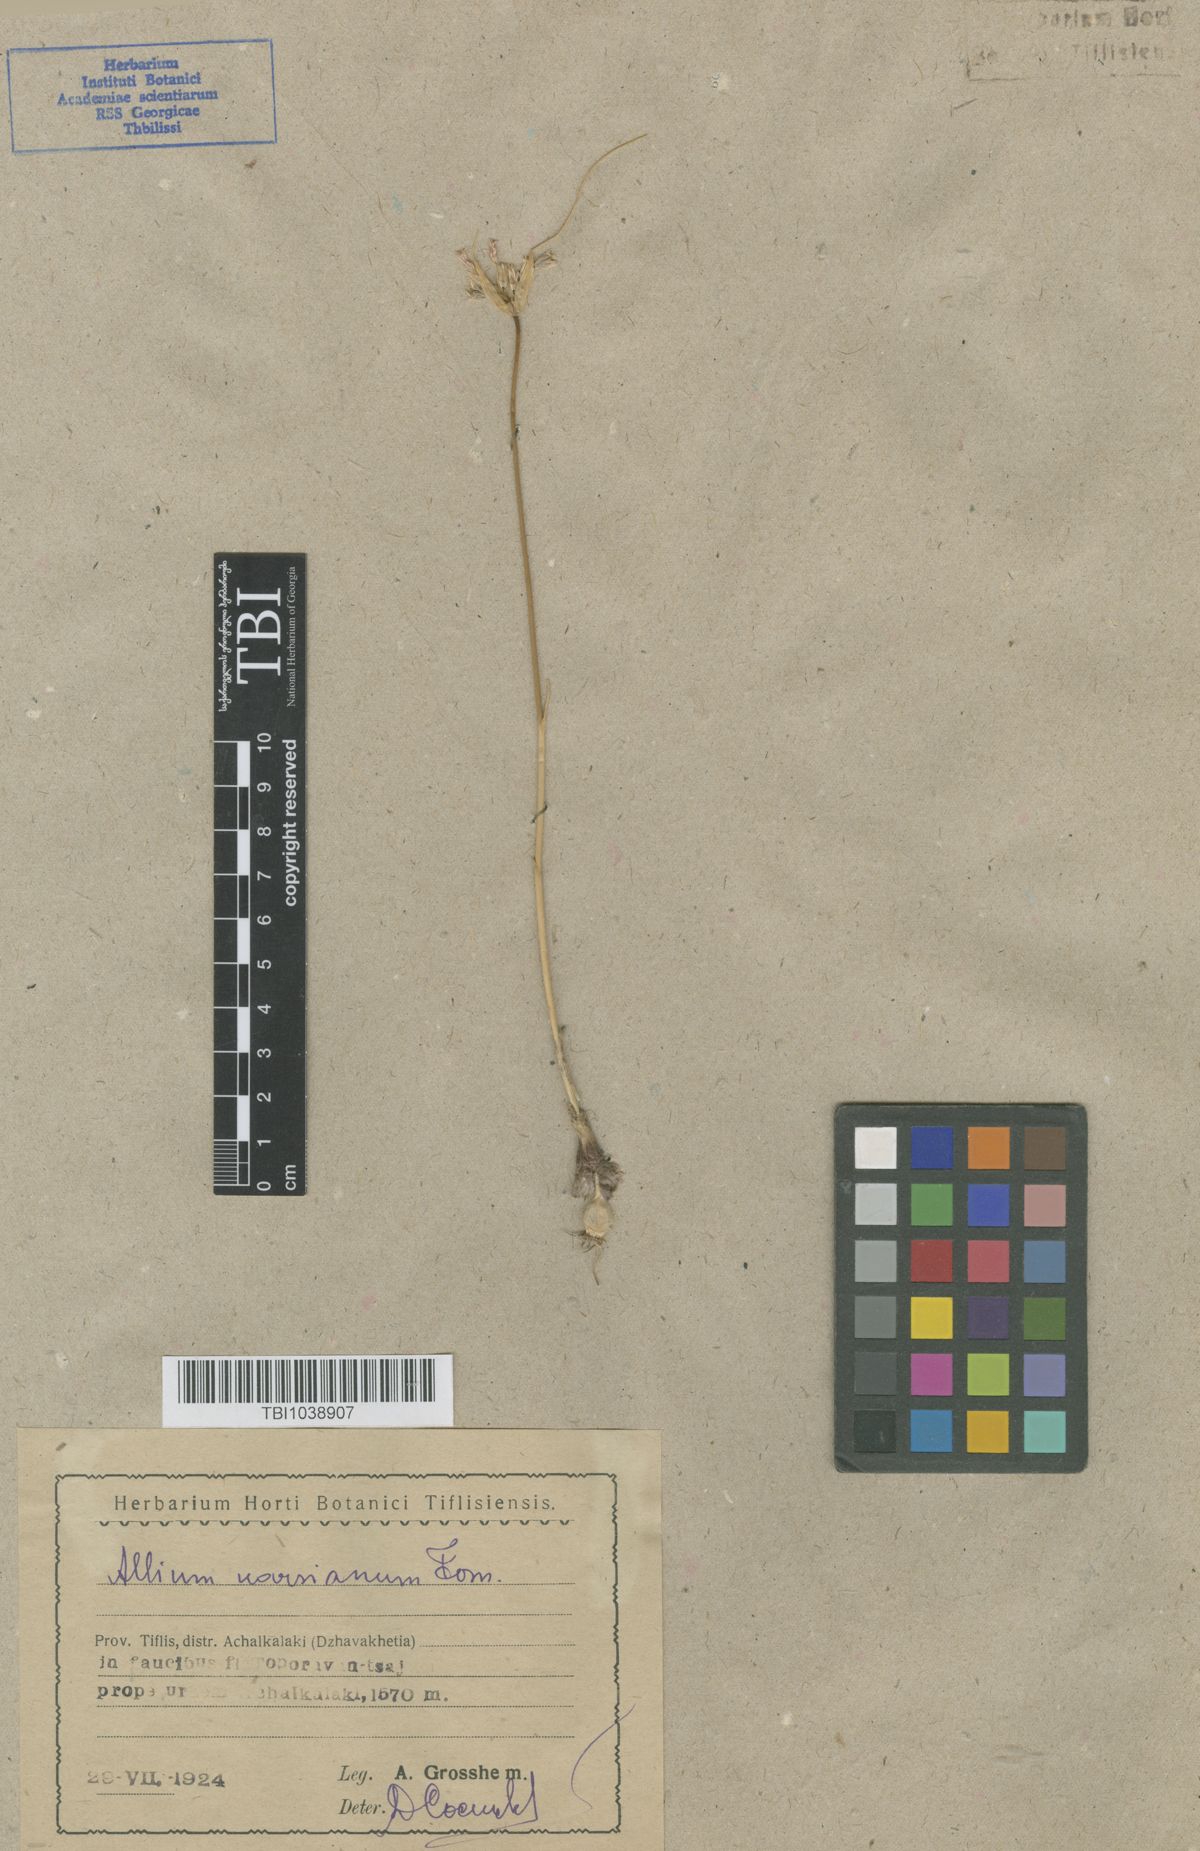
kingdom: Plantae
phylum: Tracheophyta
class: Liliopsida
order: Asparagales
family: Amaryllidaceae
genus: Allium
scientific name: Allium paniculatum
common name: Pale garlic
